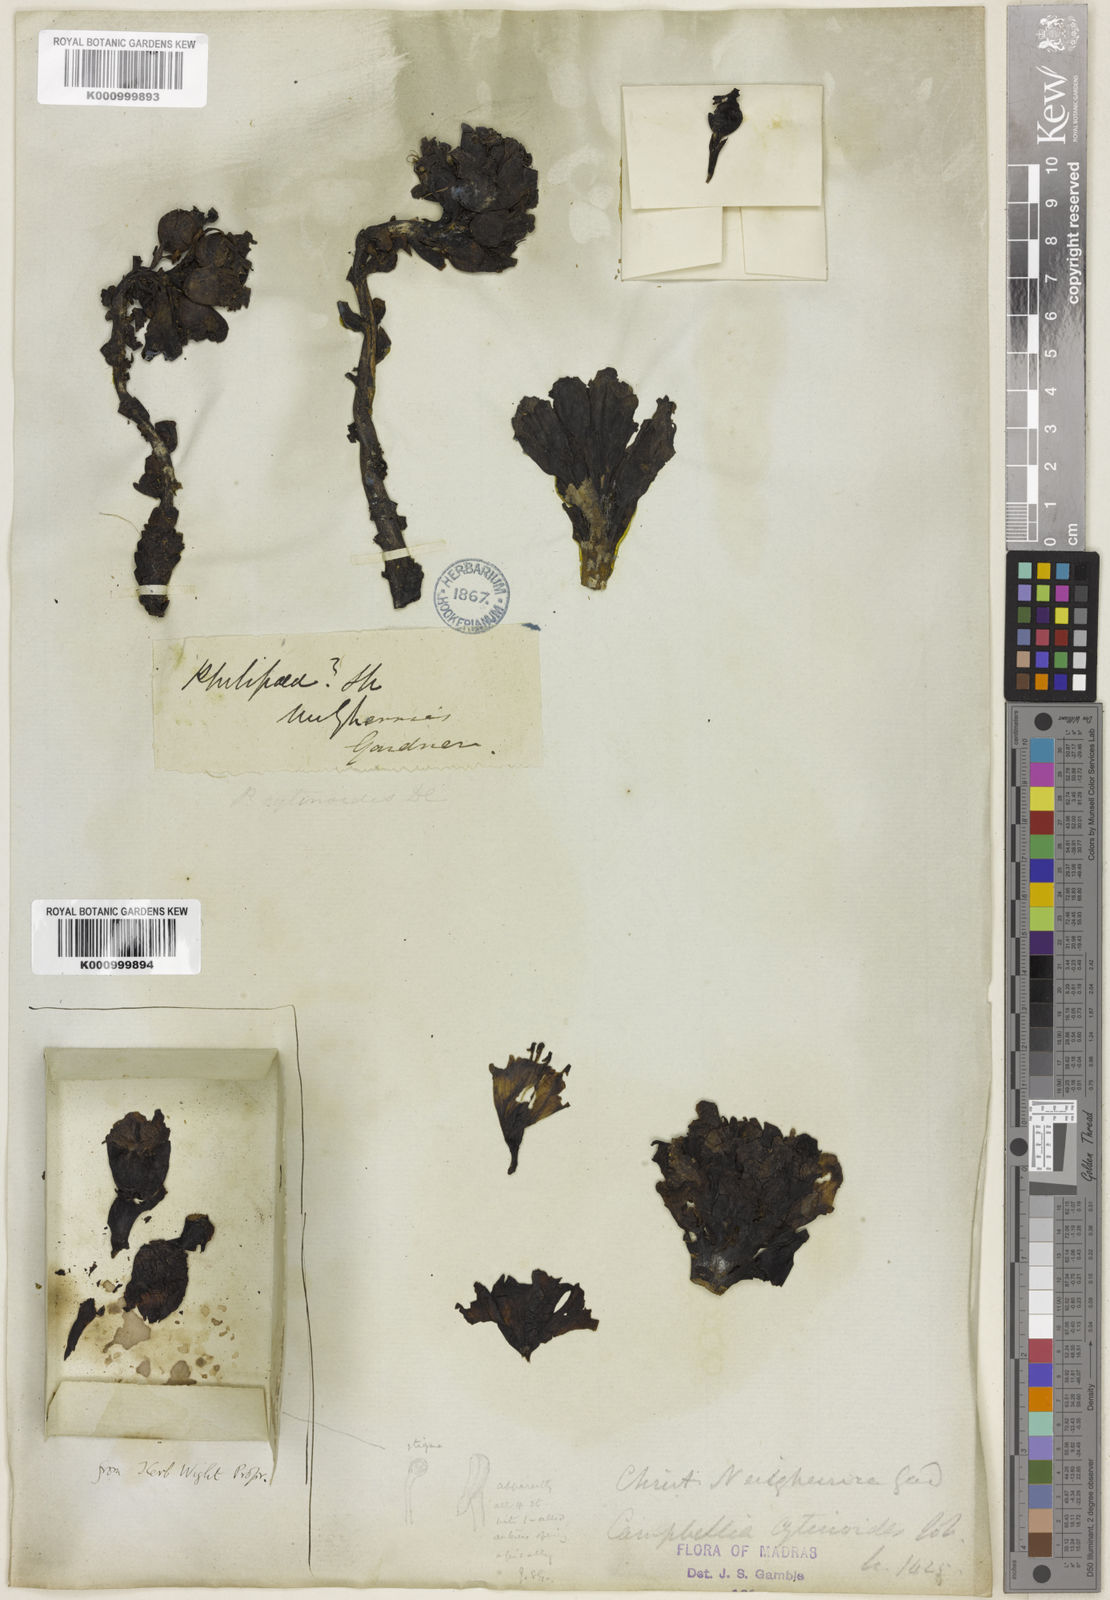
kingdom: Plantae
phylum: Tracheophyta
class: Magnoliopsida
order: Lamiales
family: Orobanchaceae
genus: Campbellia
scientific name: Campbellia cytinoides
